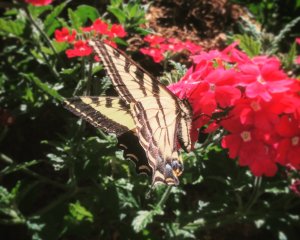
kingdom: Animalia
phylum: Arthropoda
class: Insecta
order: Lepidoptera
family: Papilionidae
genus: Pterourus
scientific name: Pterourus rutulus
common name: Western Tiger Swallowtail
